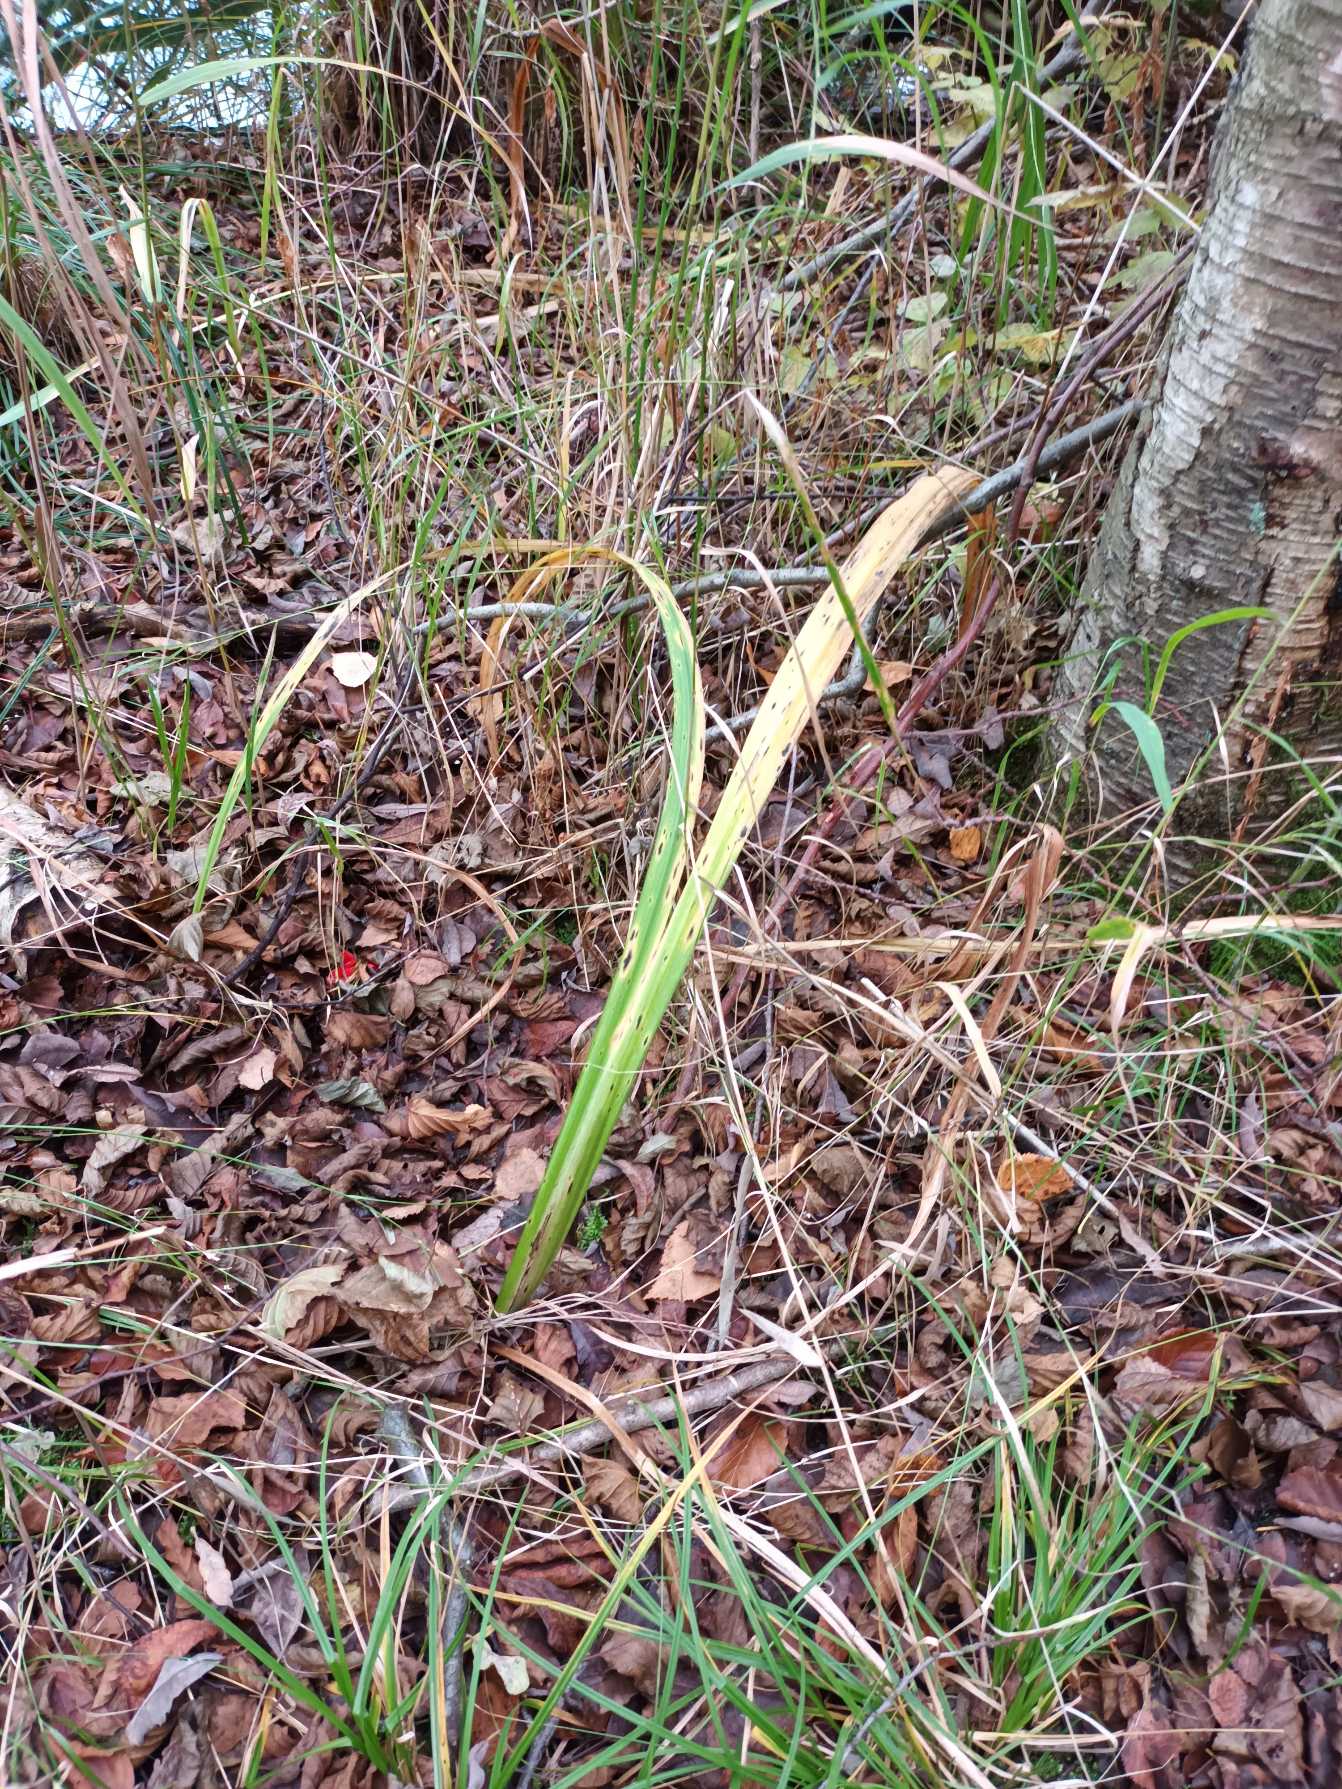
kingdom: Plantae
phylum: Tracheophyta
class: Liliopsida
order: Asparagales
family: Iridaceae
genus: Iris
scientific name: Iris pseudacorus
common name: Gul iris
